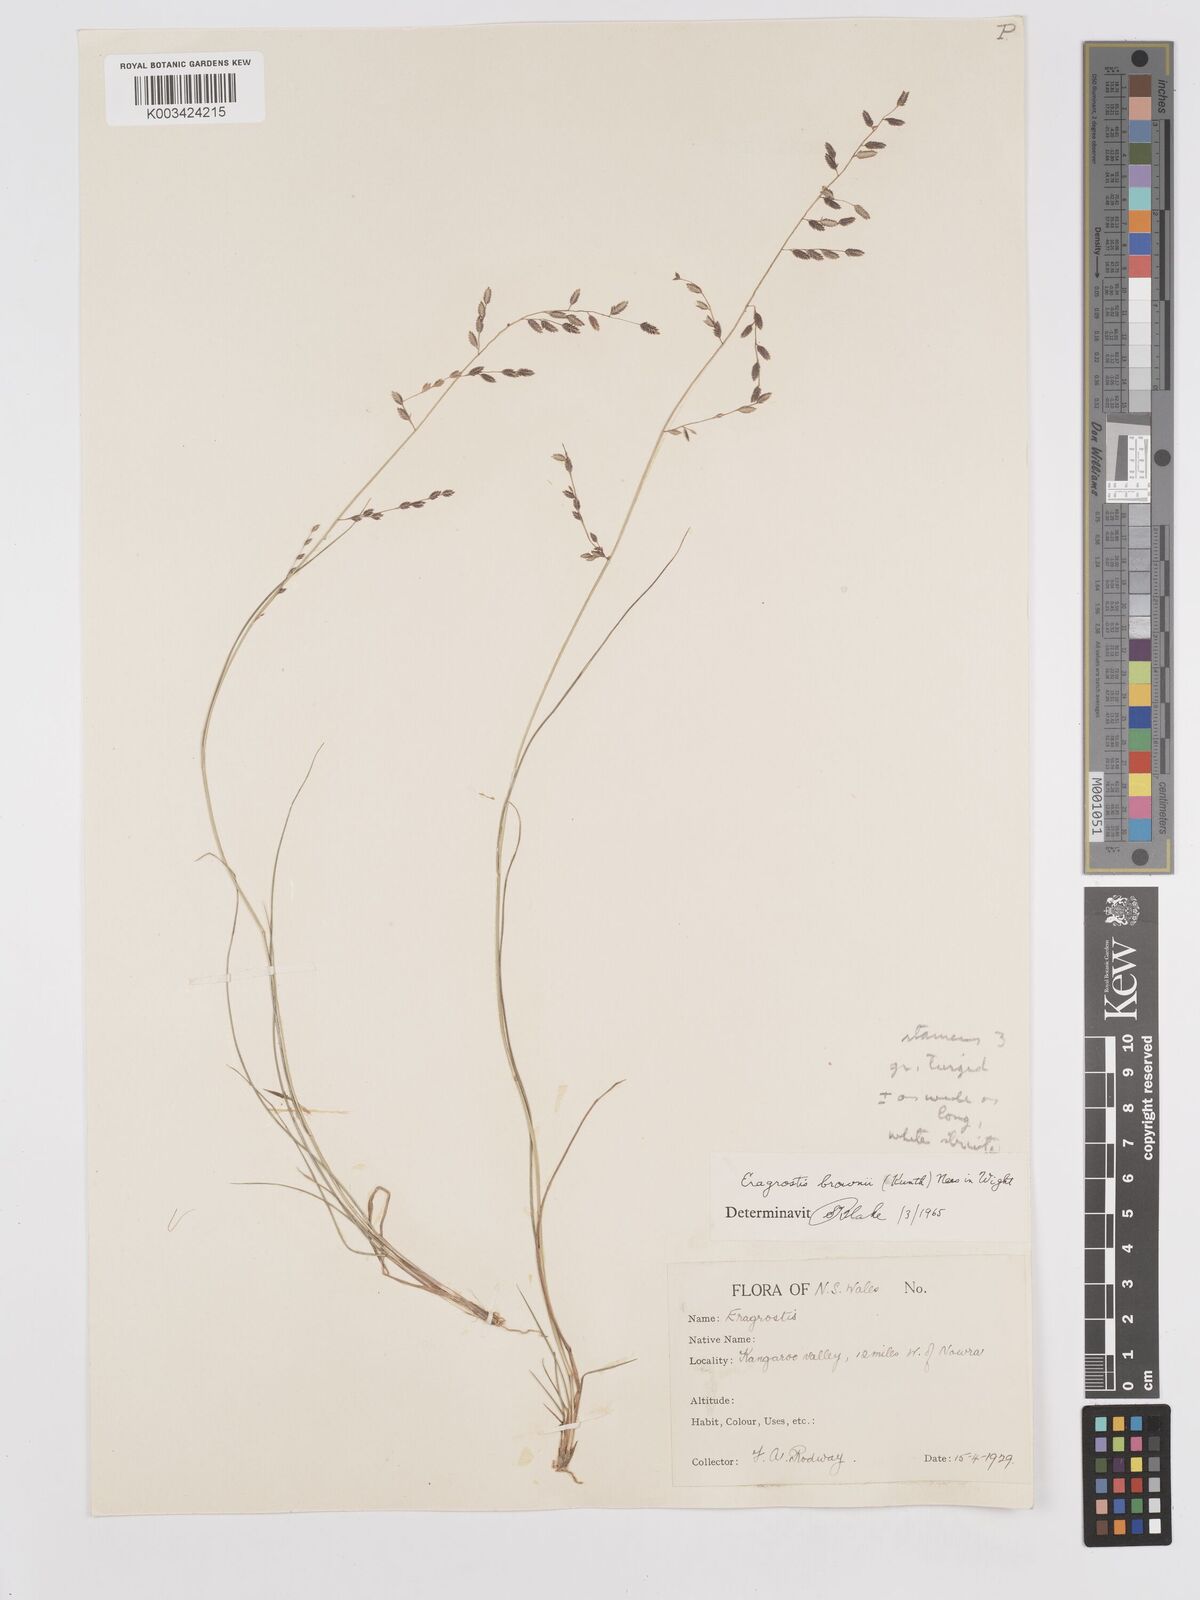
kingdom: Plantae
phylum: Tracheophyta
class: Liliopsida
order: Poales
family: Poaceae
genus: Eragrostis
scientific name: Eragrostis brownii
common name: Lovegrass
